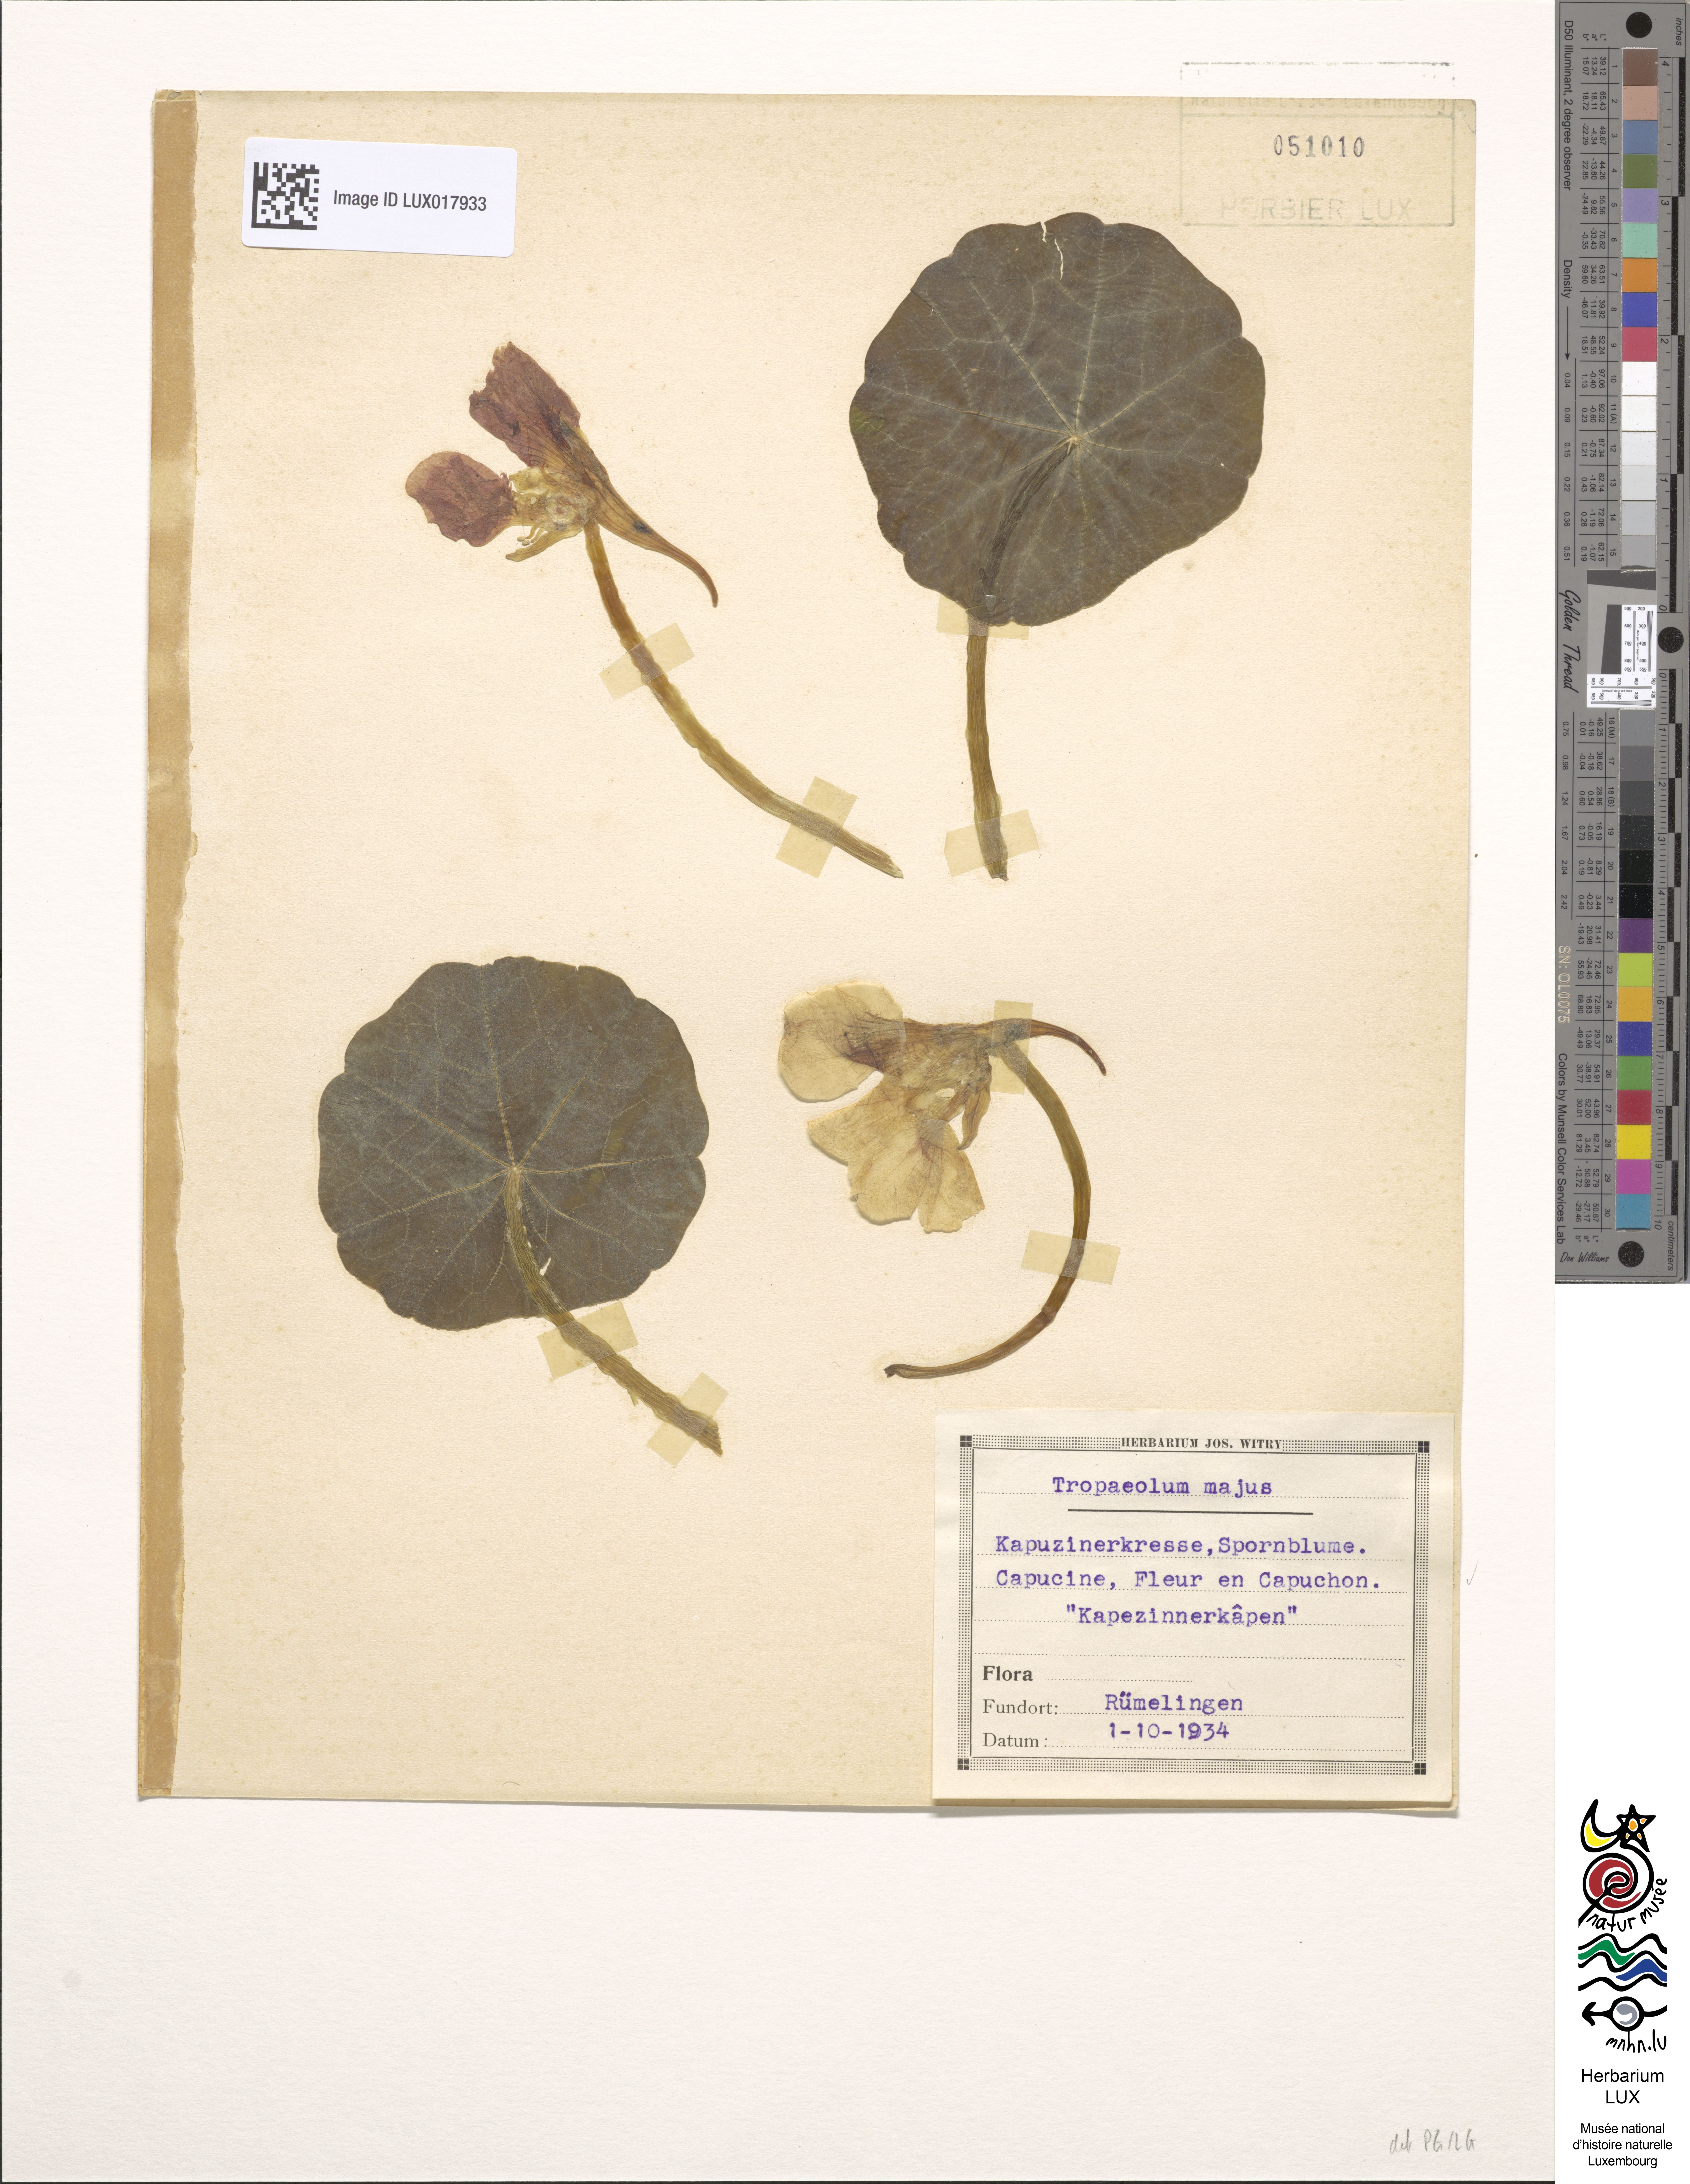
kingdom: Plantae
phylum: Tracheophyta
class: Magnoliopsida
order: Brassicales
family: Tropaeolaceae
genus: Tropaeolum
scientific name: Tropaeolum majus
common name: Nasturtium
